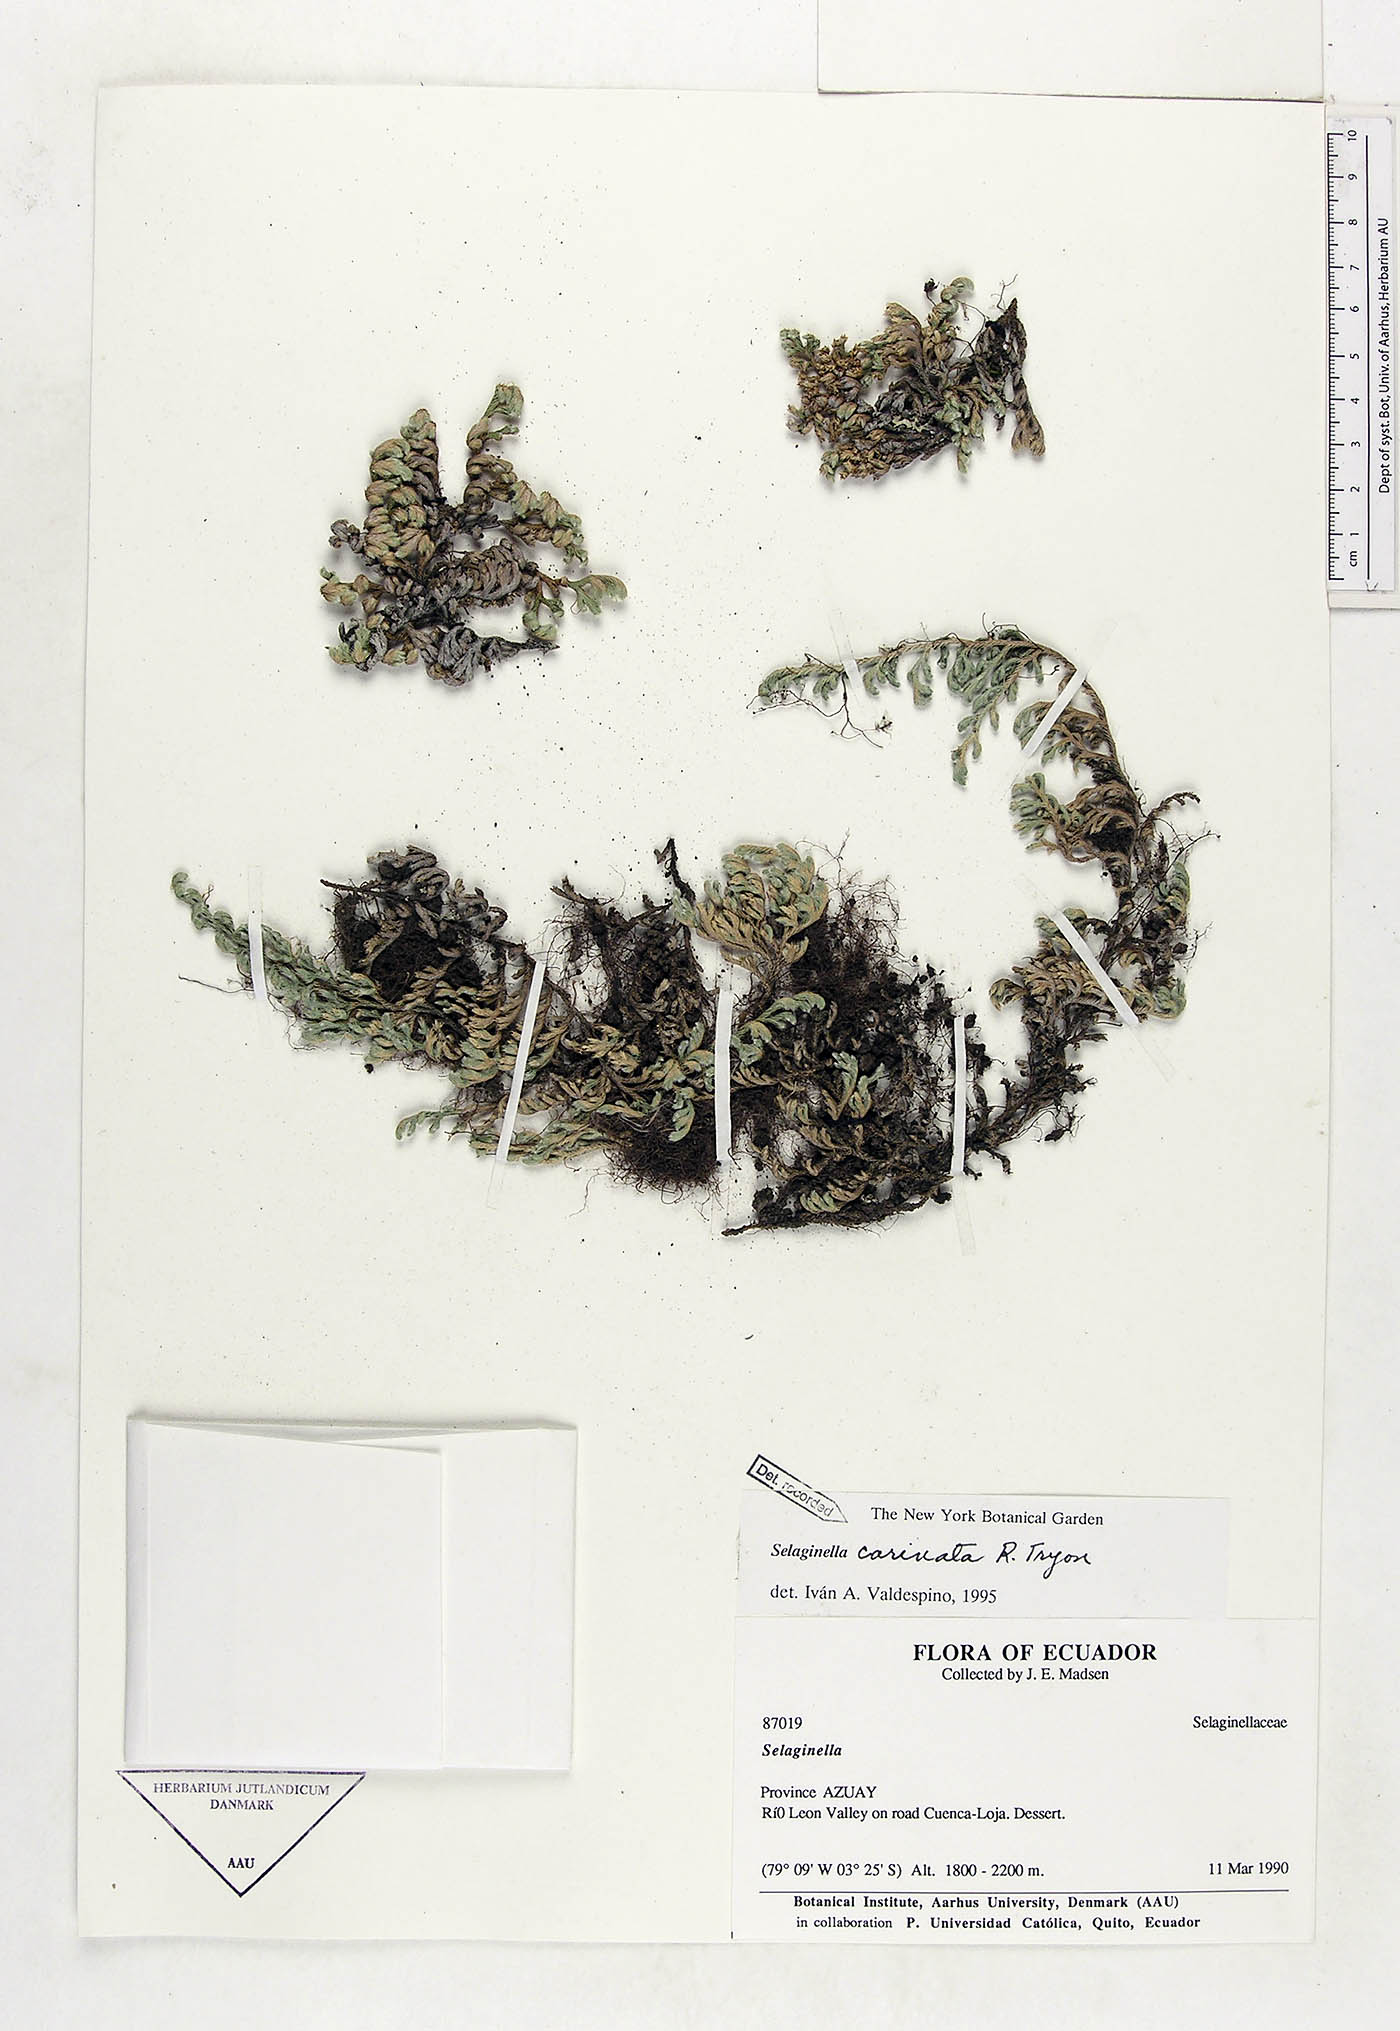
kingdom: Plantae
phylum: Tracheophyta
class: Lycopodiopsida
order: Selaginellales
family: Selaginellaceae
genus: Selaginella
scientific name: Selaginella carinata
